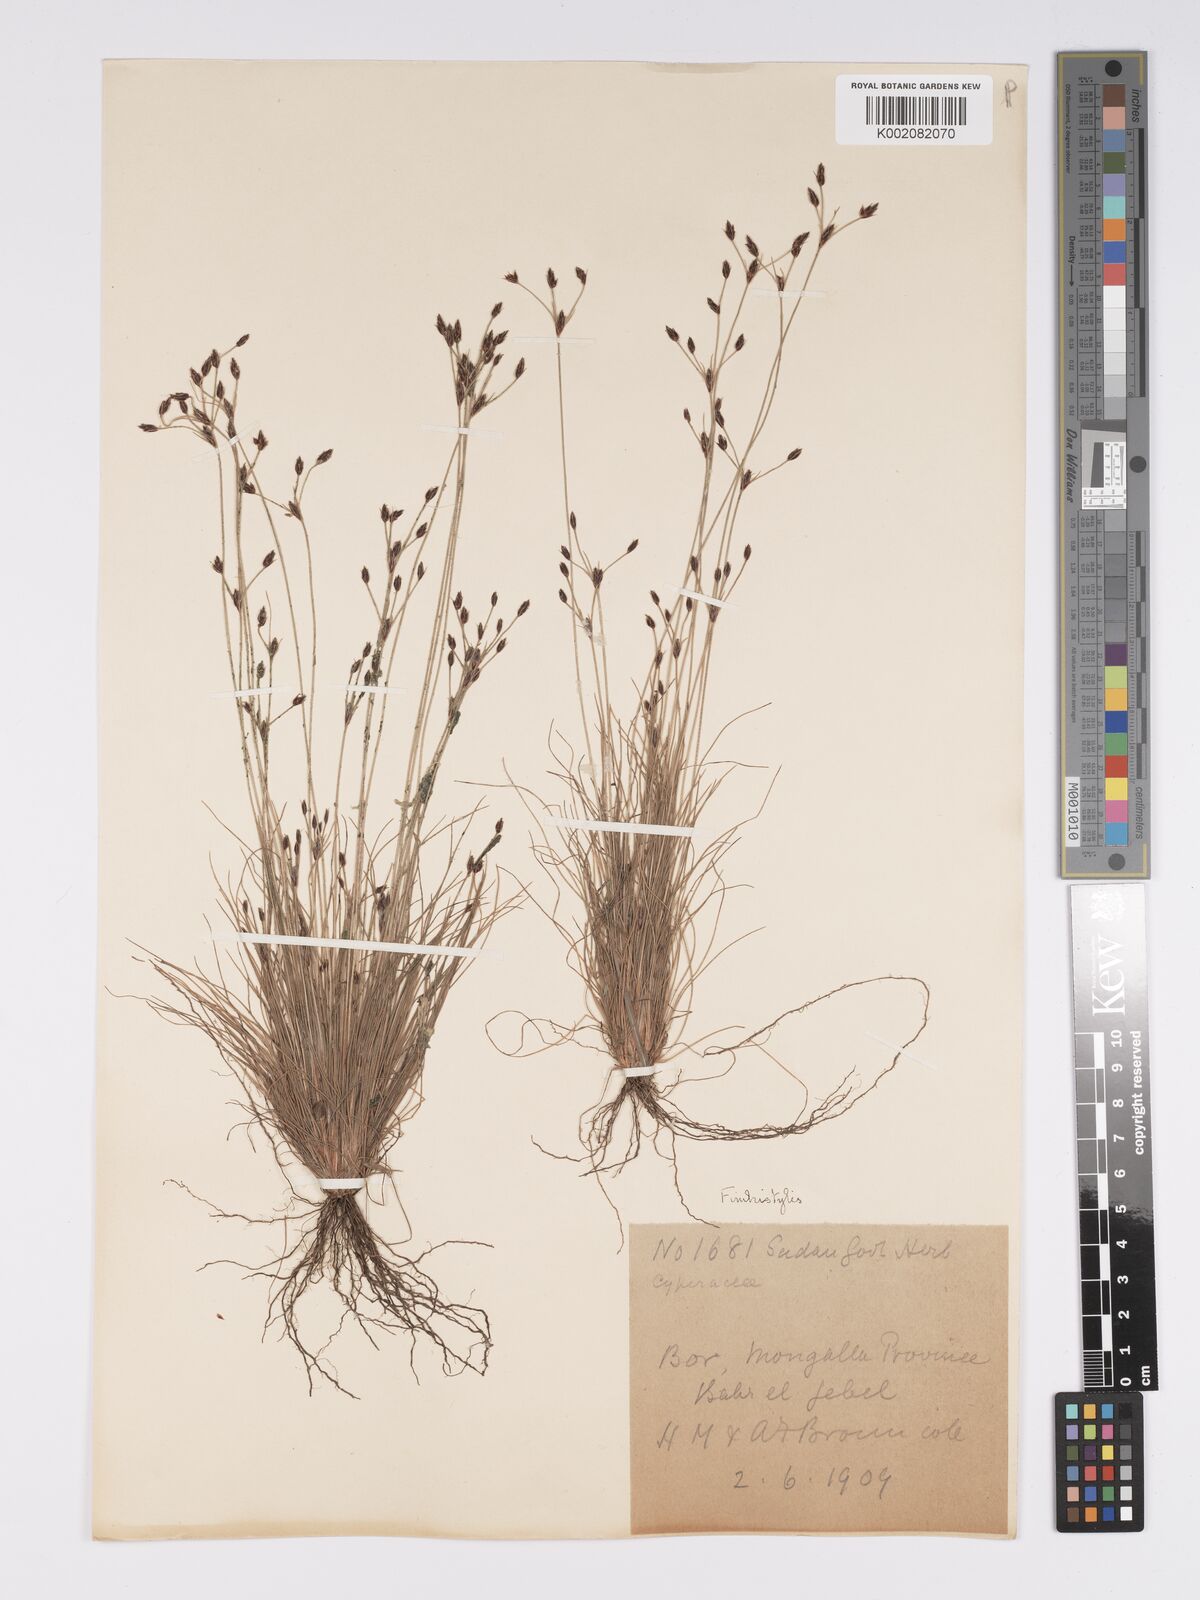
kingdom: Plantae
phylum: Tracheophyta
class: Liliopsida
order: Poales
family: Cyperaceae
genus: Bulbostylis
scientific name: Bulbostylis hispidula
